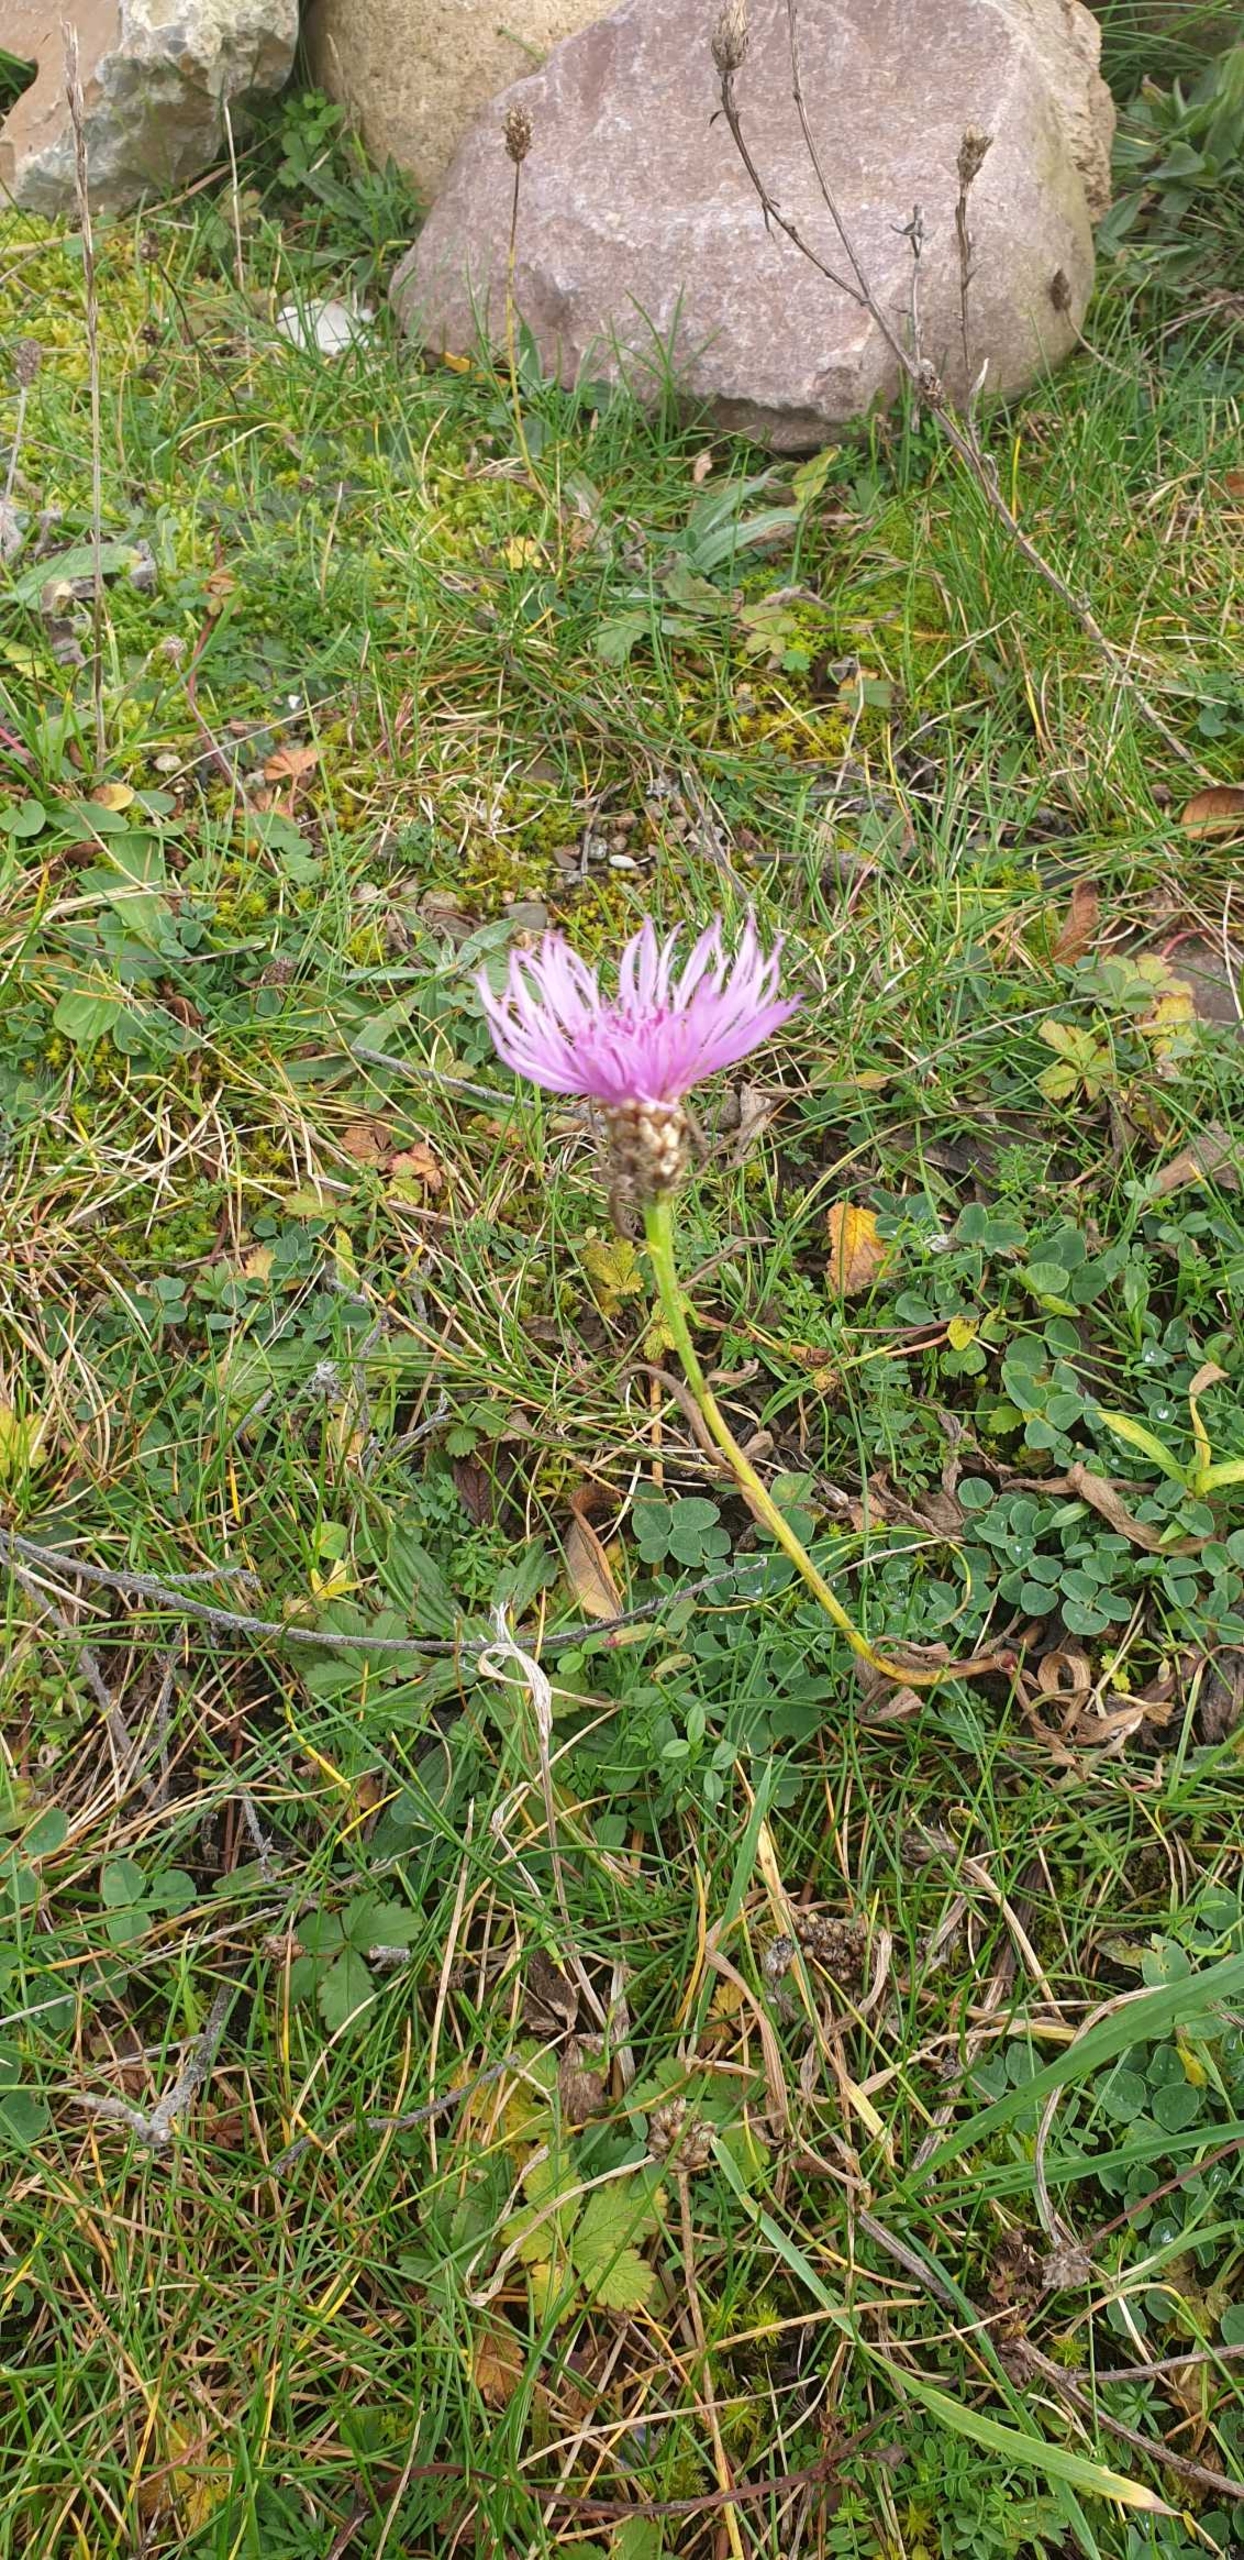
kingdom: Plantae
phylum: Tracheophyta
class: Magnoliopsida
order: Asterales
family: Asteraceae
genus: Centaurea
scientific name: Centaurea jacea
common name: Almindelig knopurt
